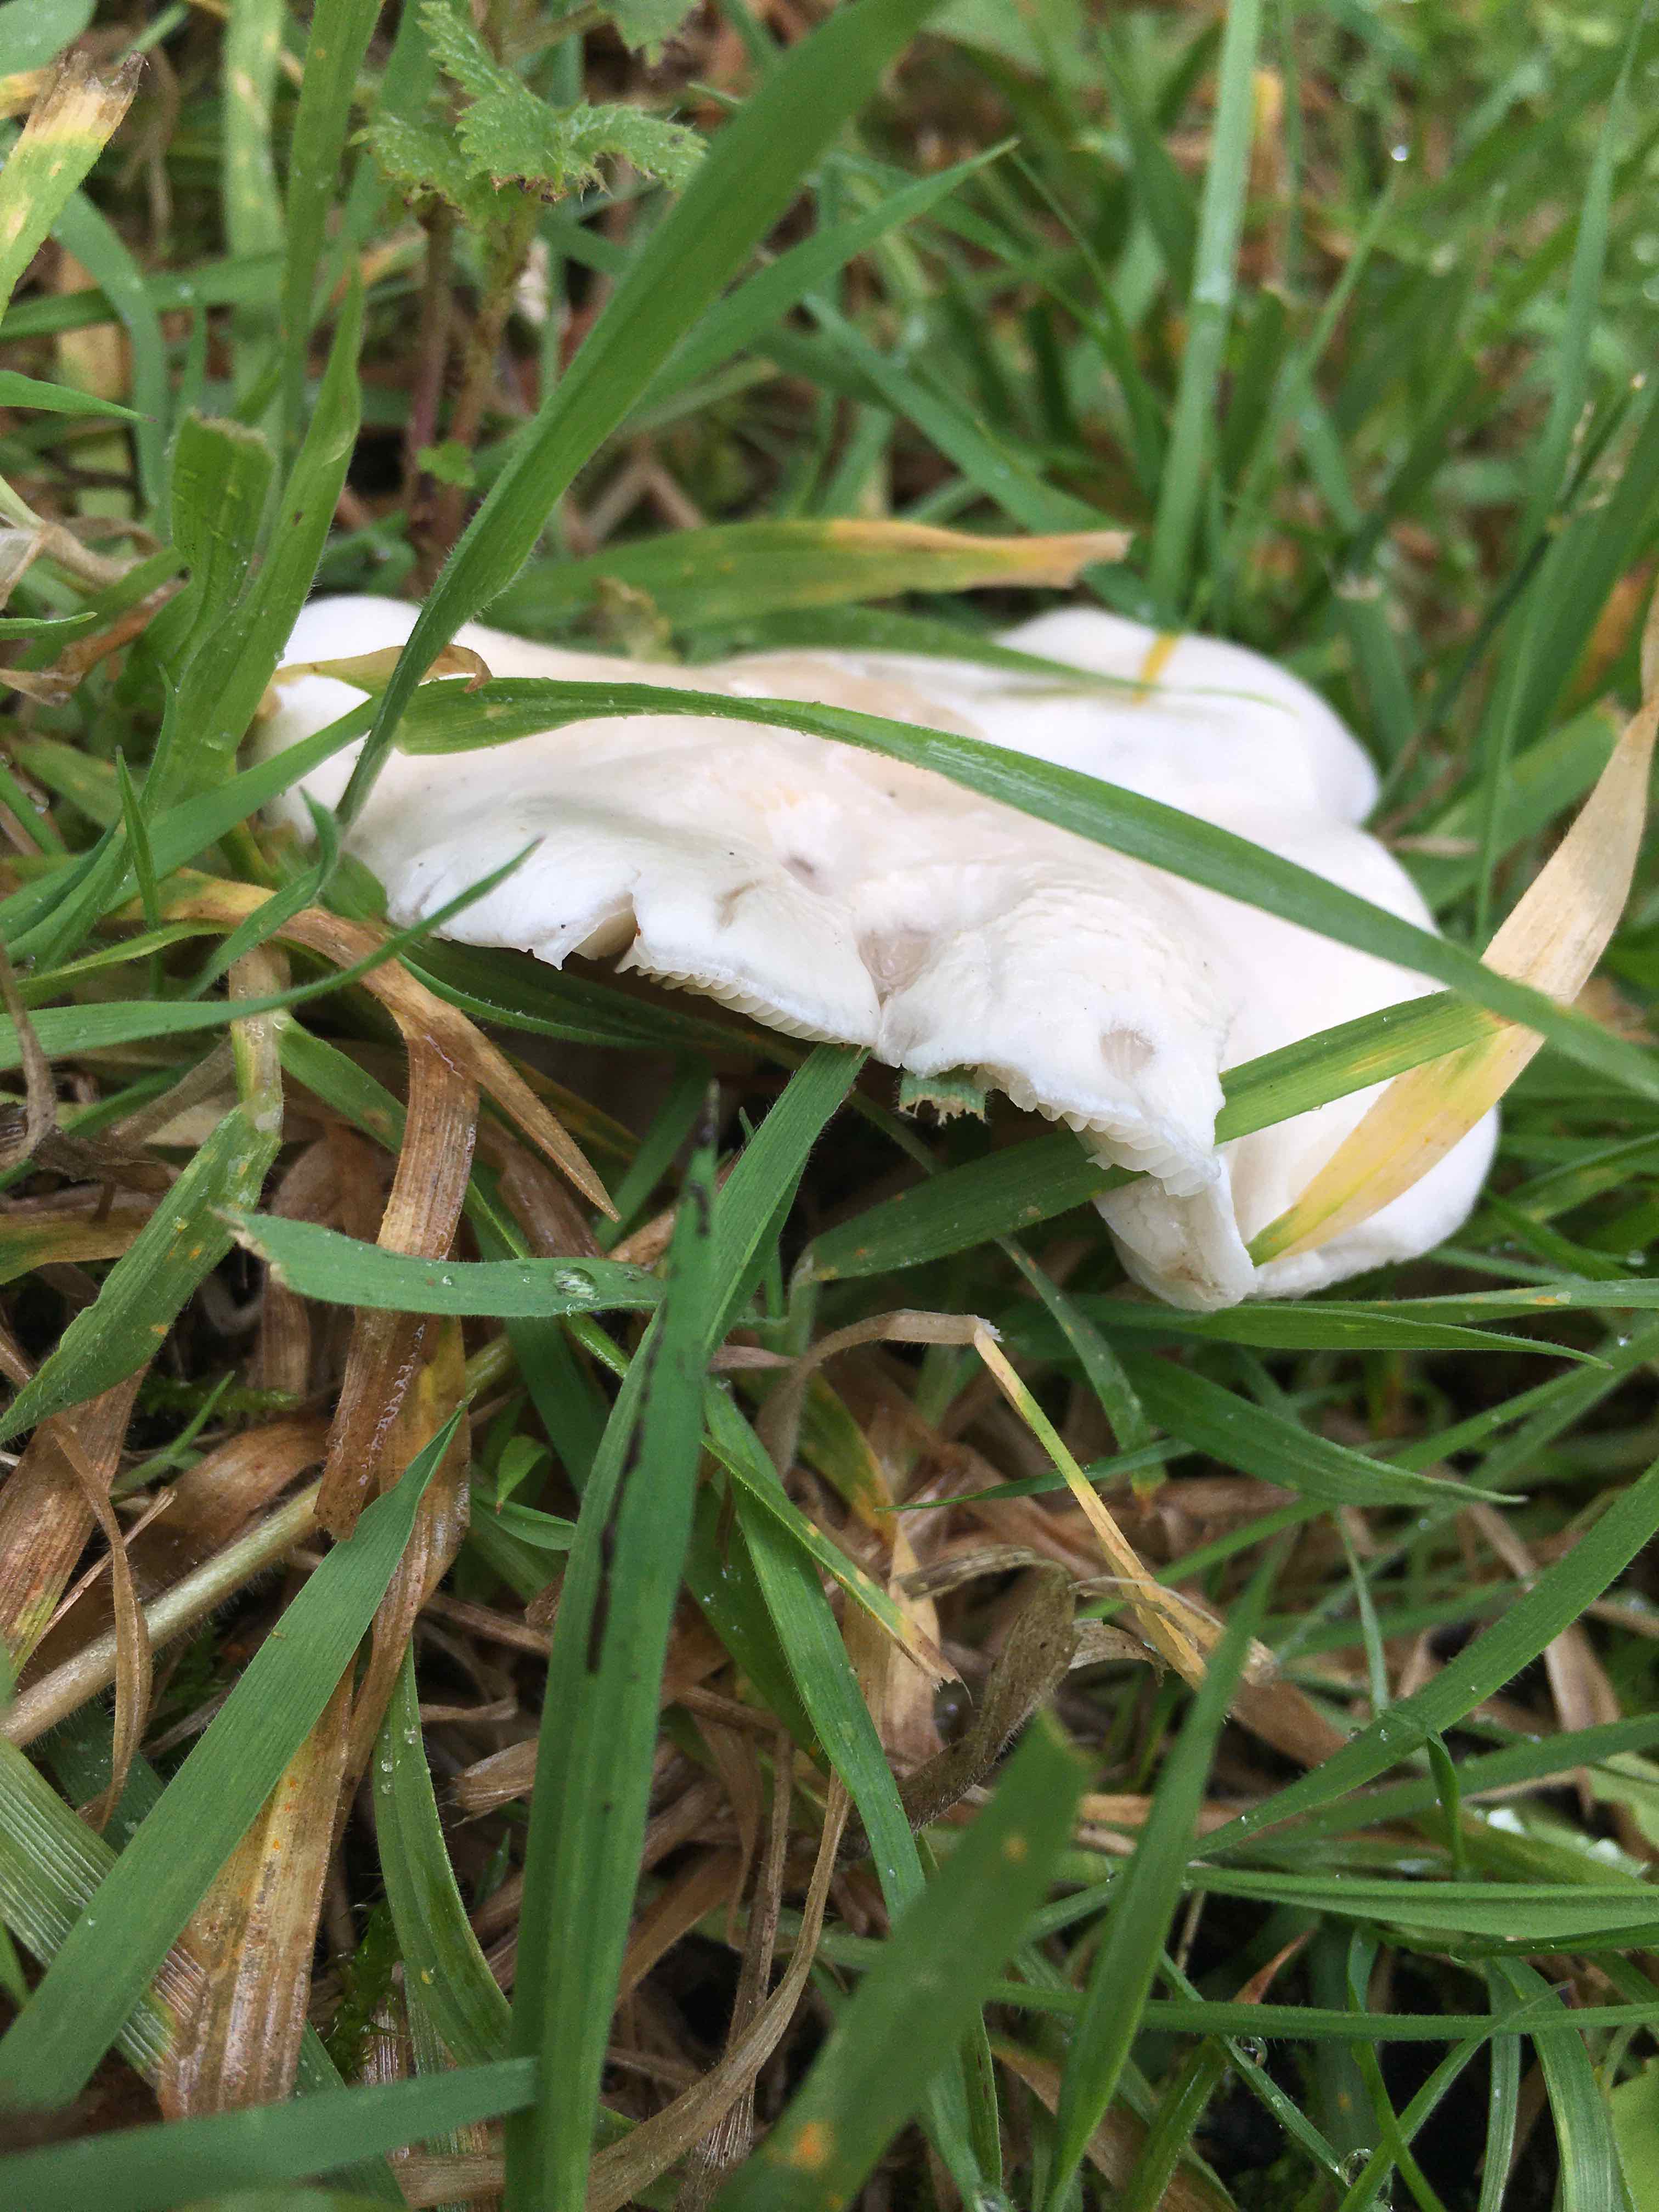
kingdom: Fungi
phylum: Basidiomycota
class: Agaricomycetes
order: Agaricales
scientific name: Agaricales
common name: champignonordenen
